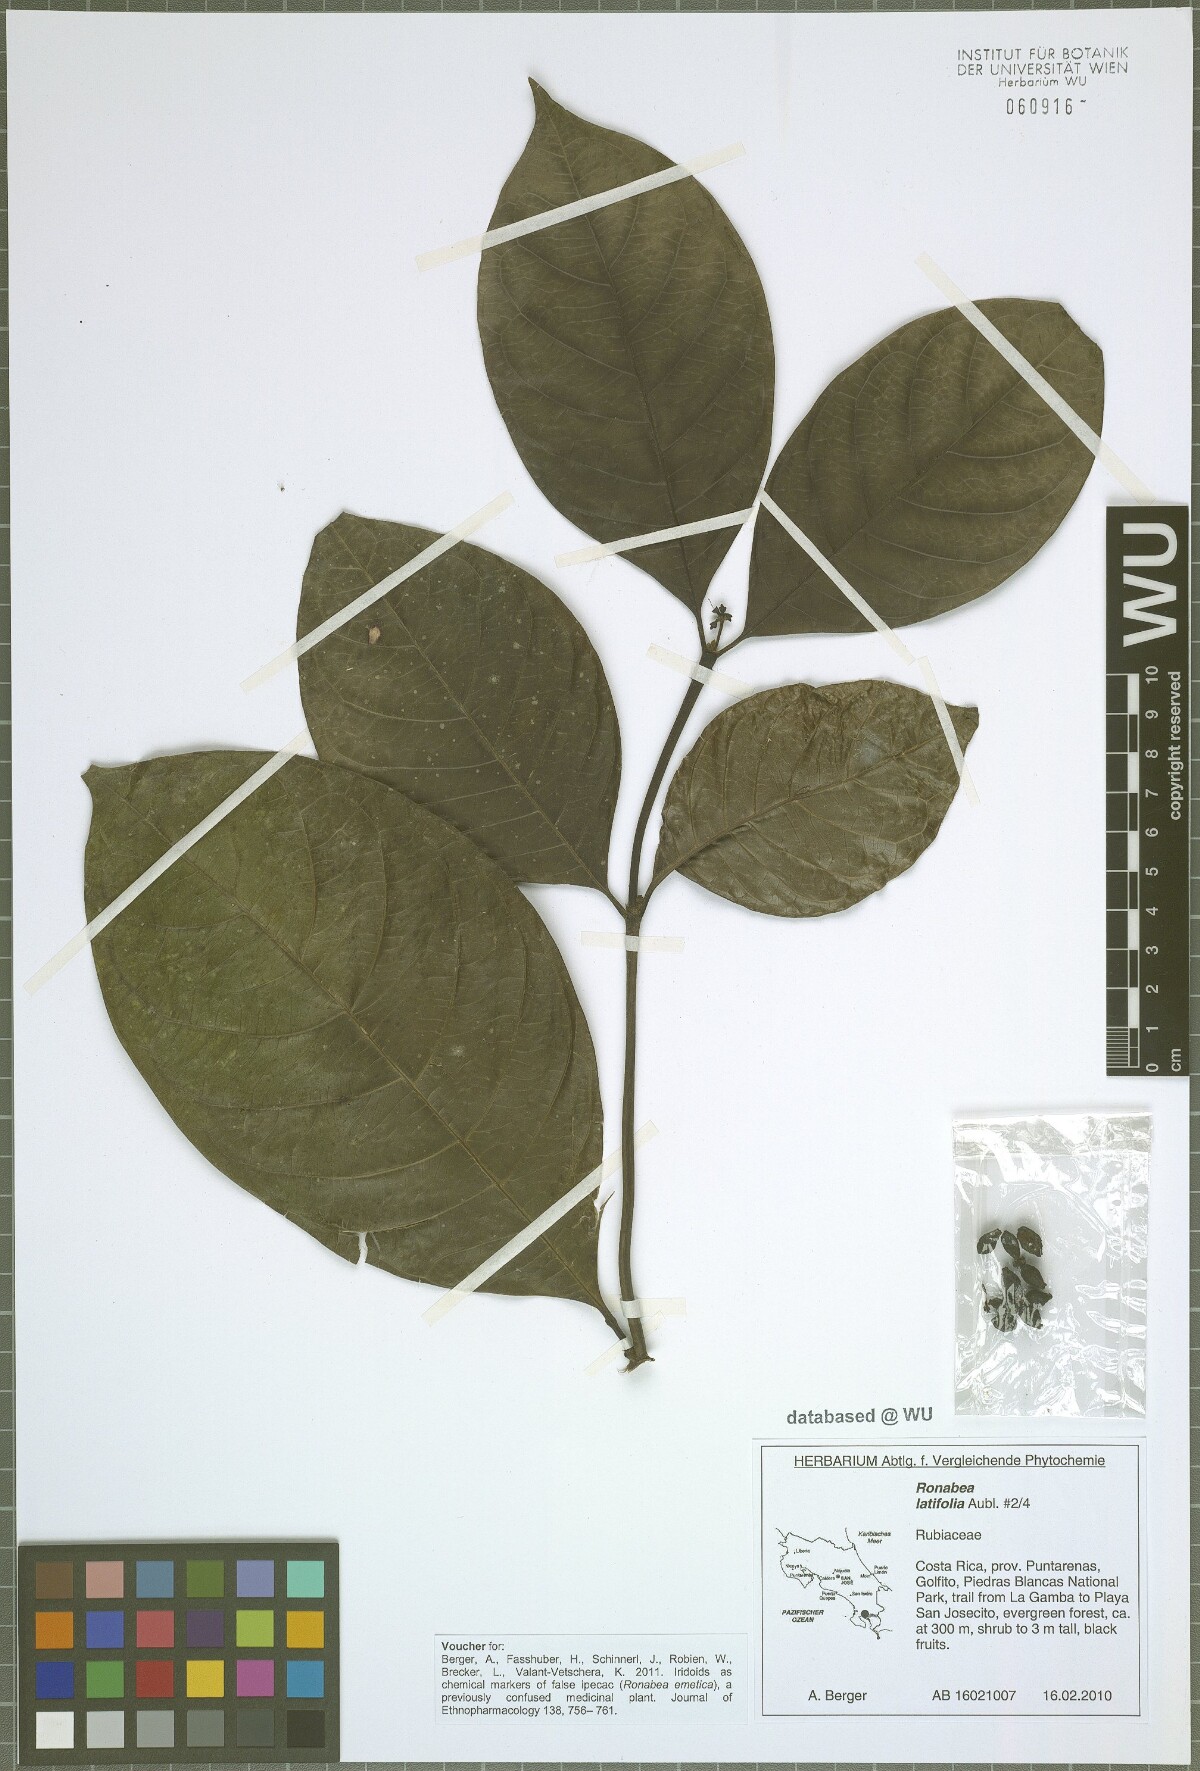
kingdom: Plantae
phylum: Tracheophyta
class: Magnoliopsida
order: Gentianales
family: Rubiaceae
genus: Ronabea
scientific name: Ronabea latifolia
